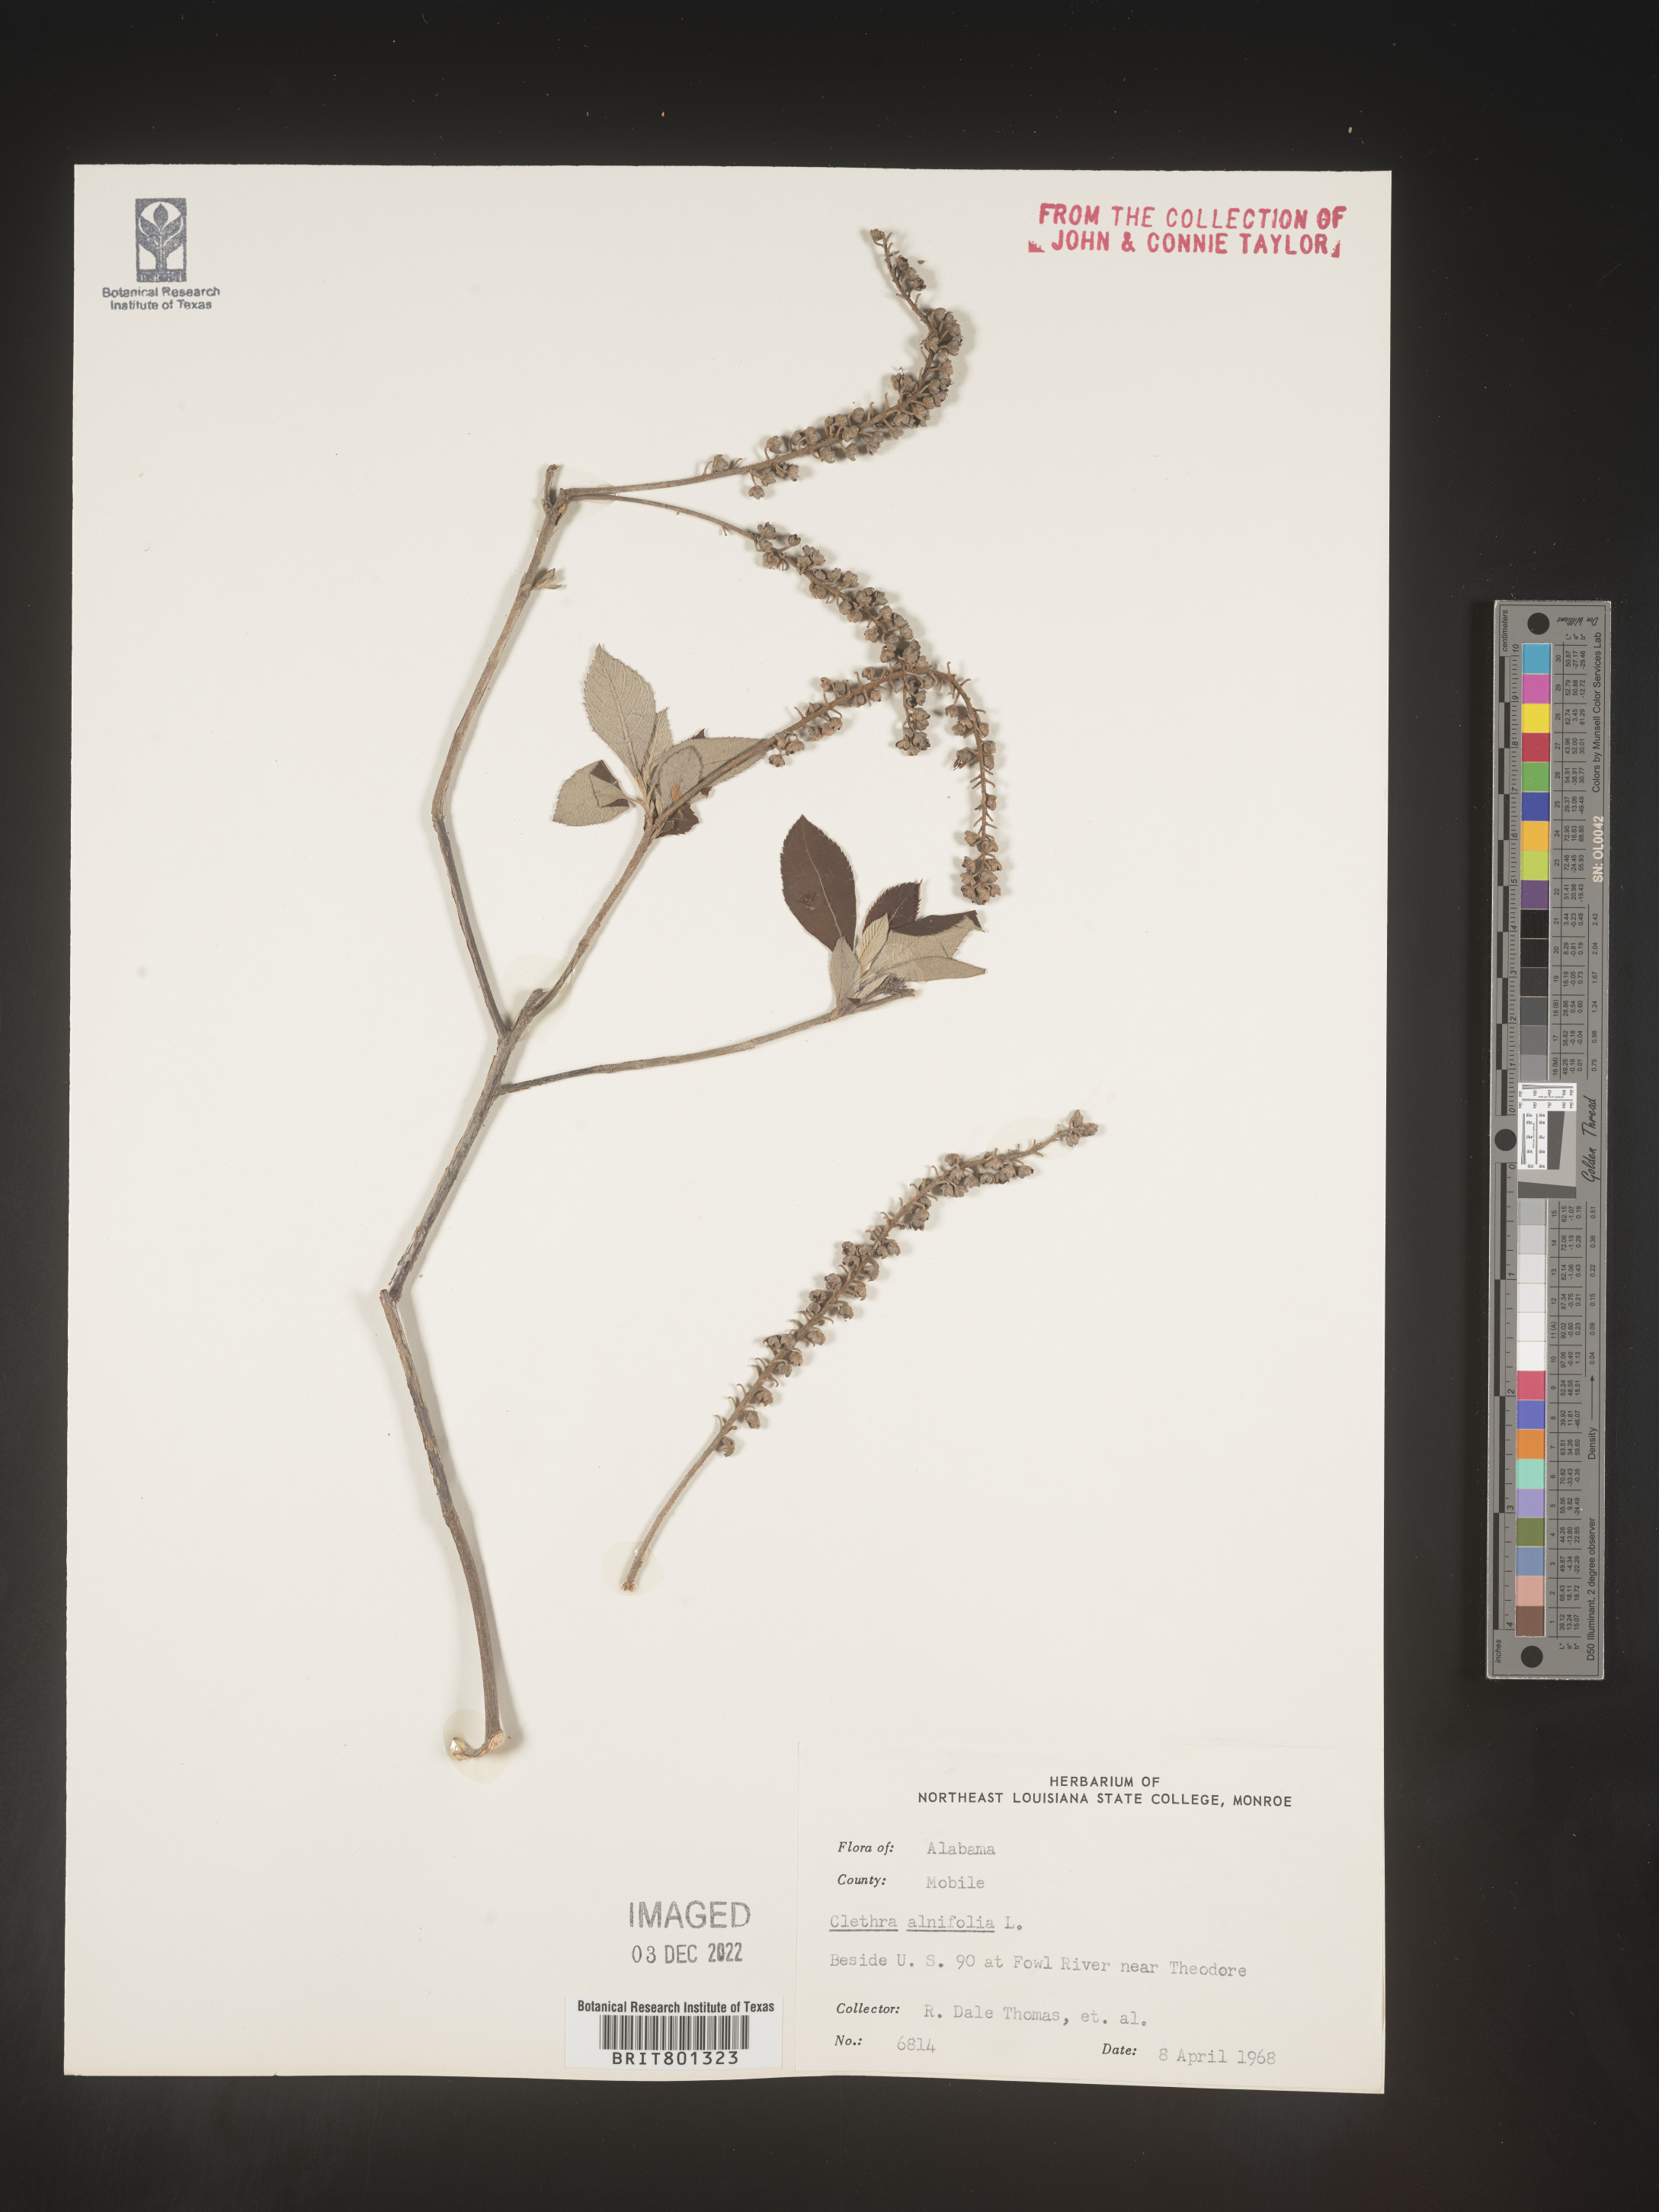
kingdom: Plantae
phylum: Tracheophyta
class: Magnoliopsida
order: Ericales
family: Clethraceae
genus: Clethra
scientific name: Clethra alnifolia
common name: Sweet pepperbush
